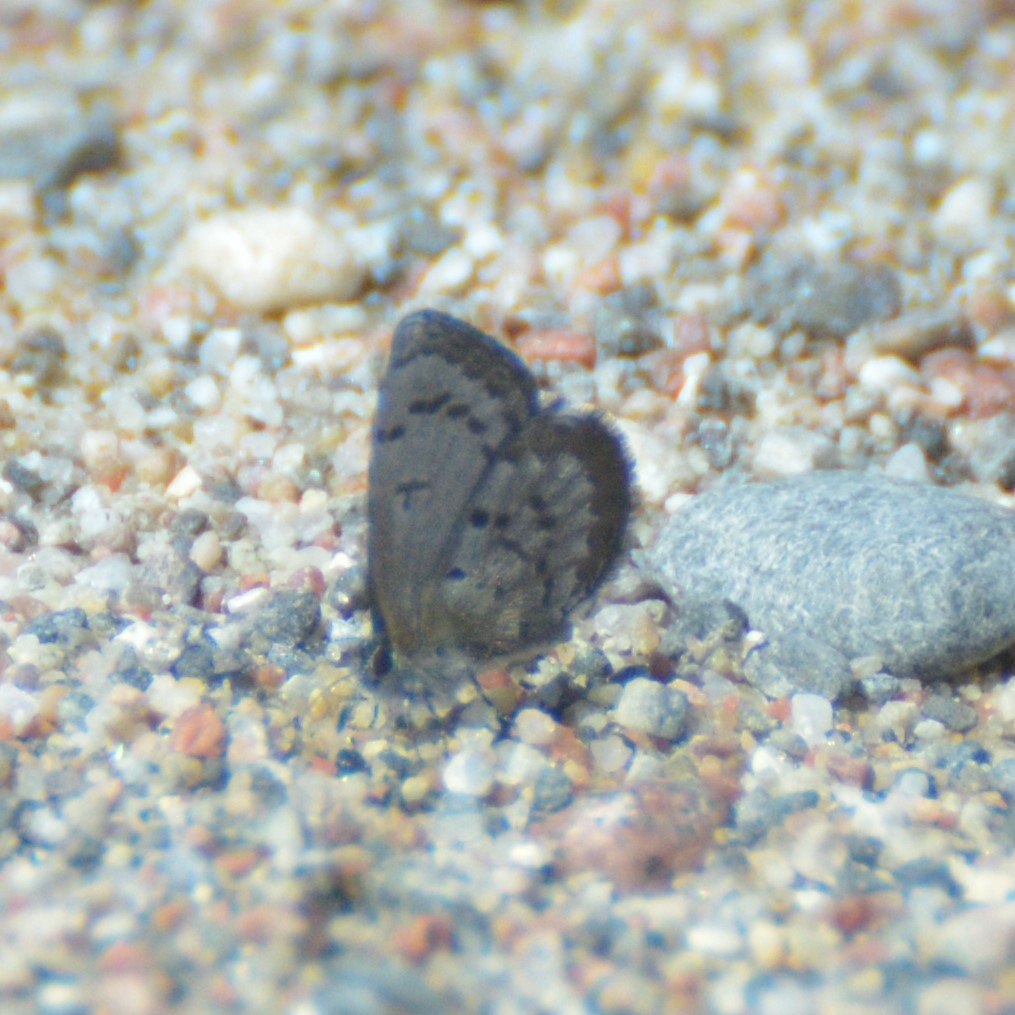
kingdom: Animalia
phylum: Arthropoda
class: Insecta
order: Lepidoptera
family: Lycaenidae
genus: Celastrina
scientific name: Celastrina lucia
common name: Northern Spring Azure
